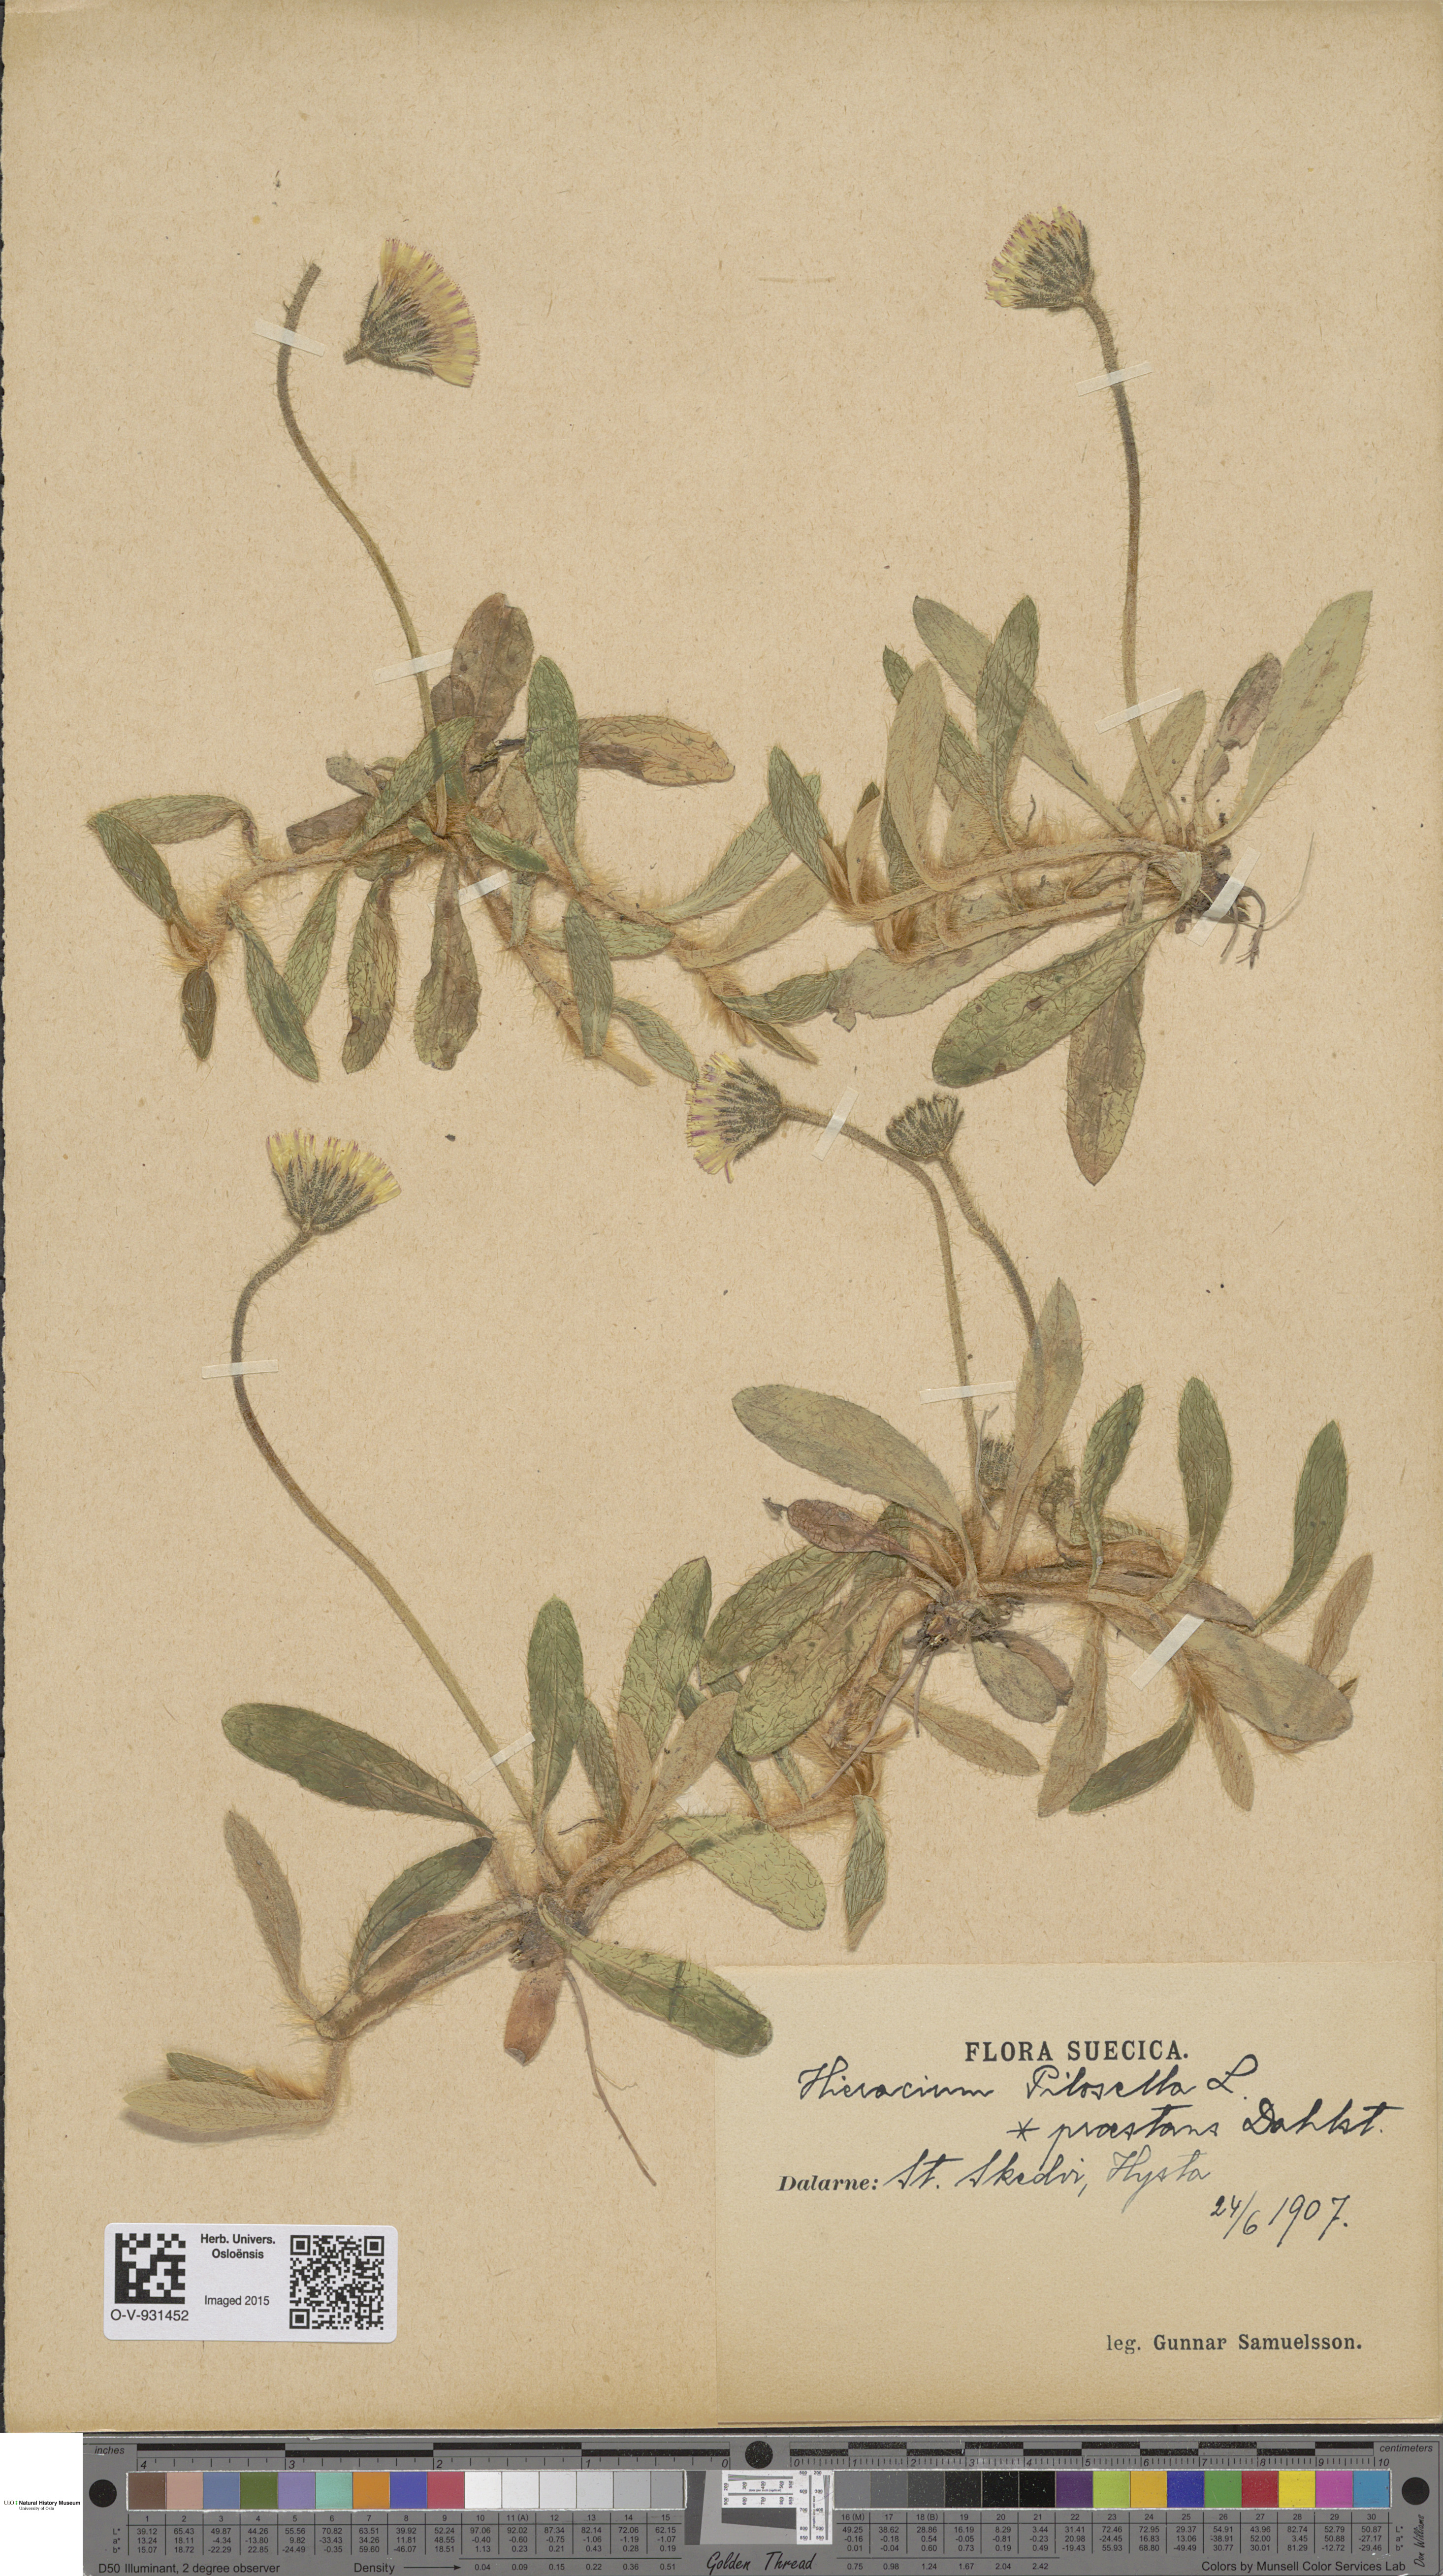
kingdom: Plantae
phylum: Tracheophyta
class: Magnoliopsida
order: Asterales
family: Asteraceae
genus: Pilosella
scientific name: Pilosella officinarum
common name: Mouse-ear hawkweed
